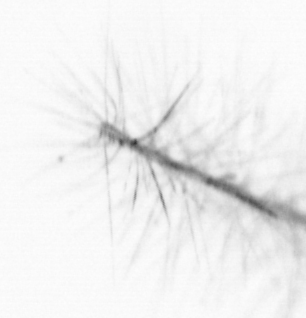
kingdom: Chromista
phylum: Ochrophyta
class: Bacillariophyceae
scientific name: Bacillariophyceae
